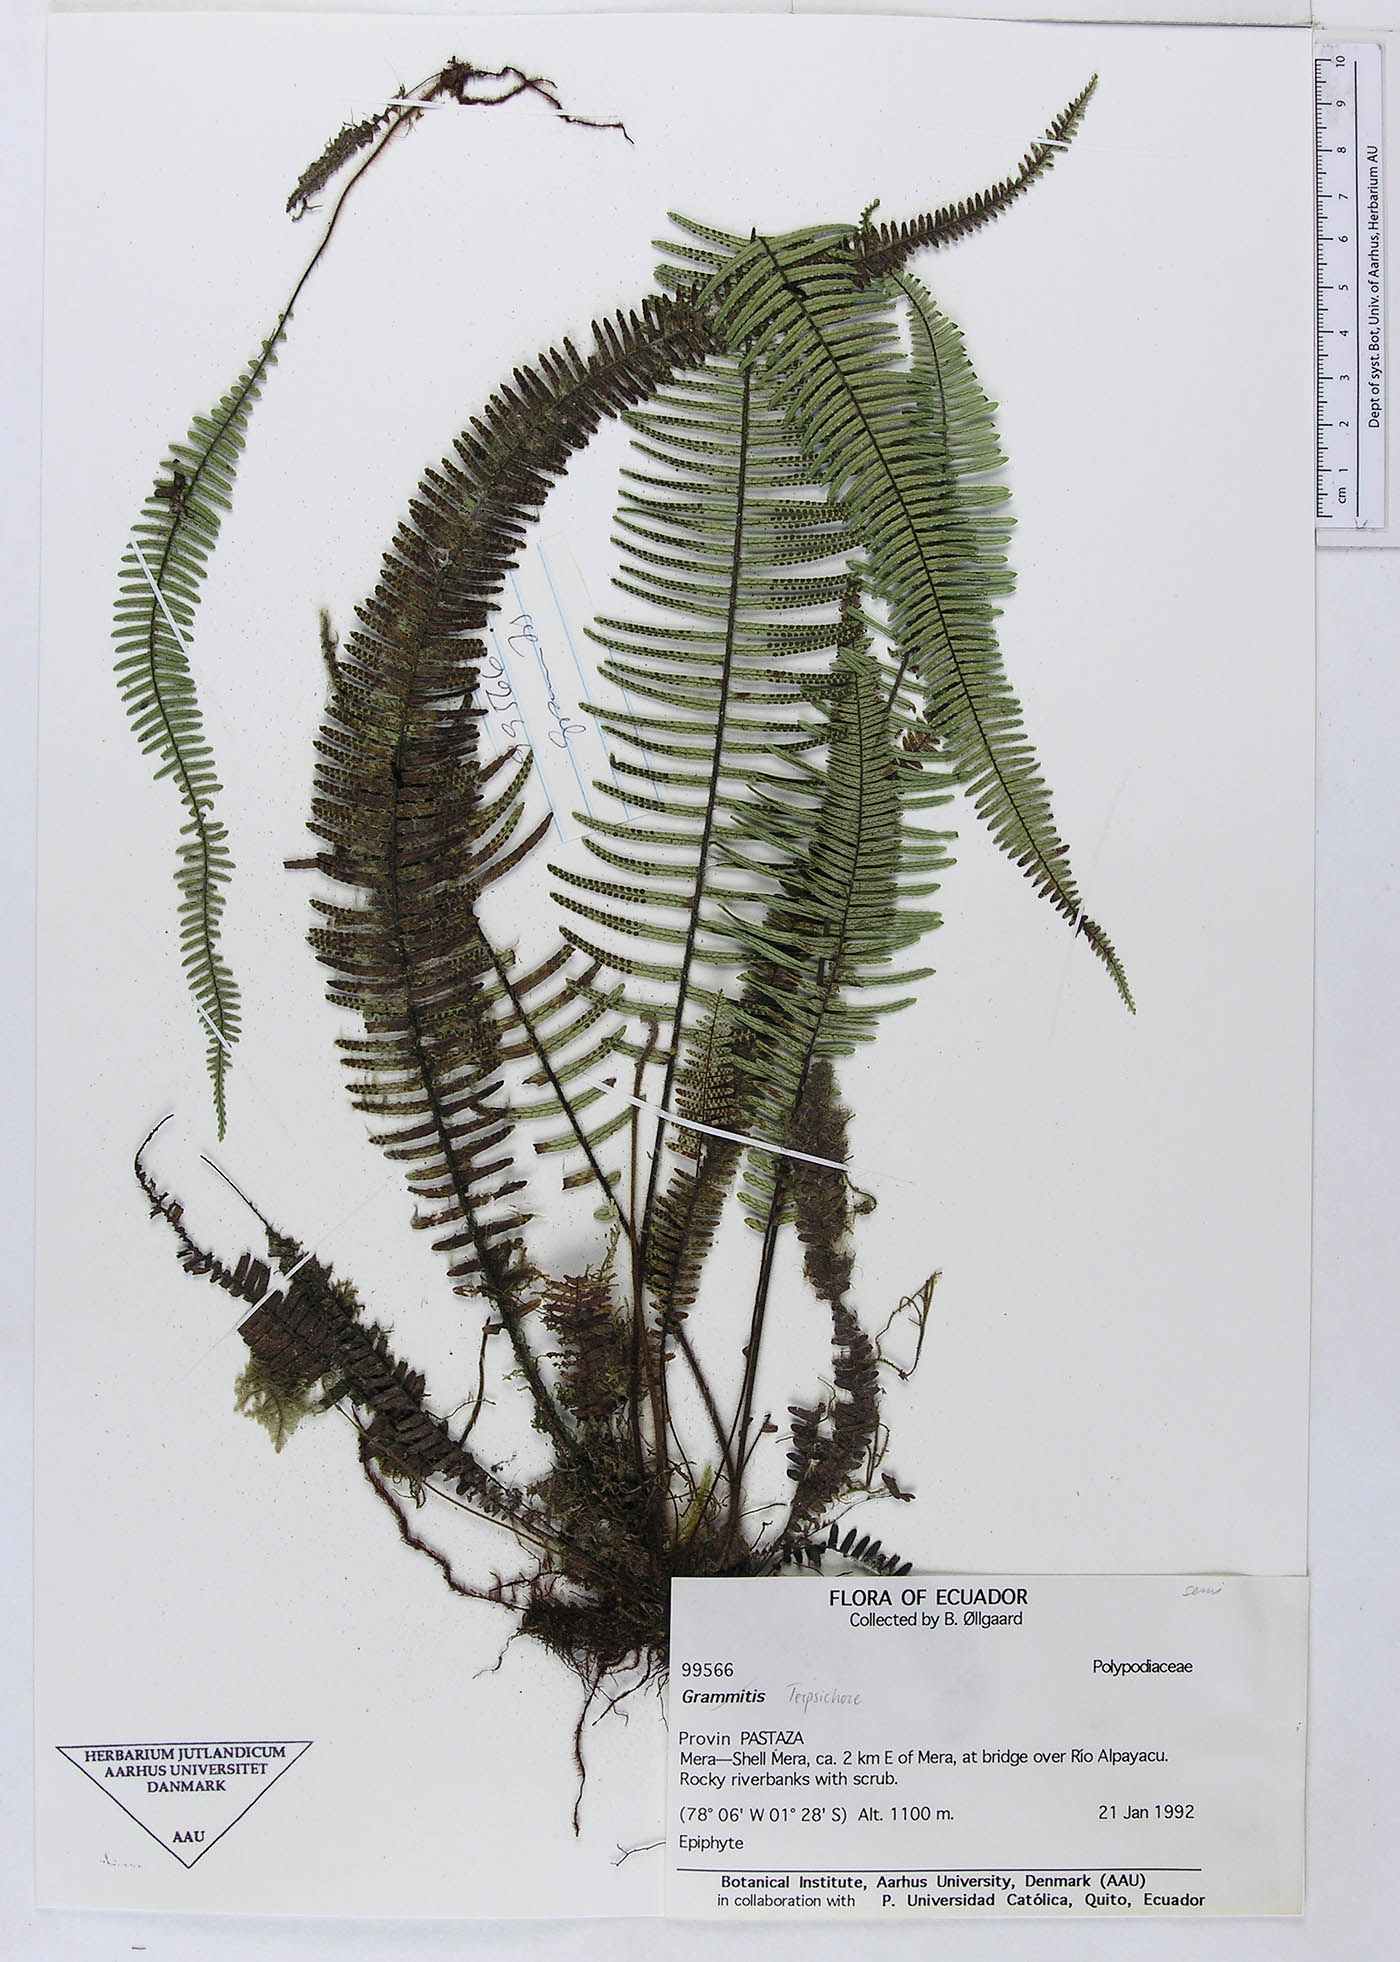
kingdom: Plantae
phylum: Tracheophyta
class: Polypodiopsida
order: Polypodiales
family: Polypodiaceae
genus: Grammitis
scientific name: Grammitis
